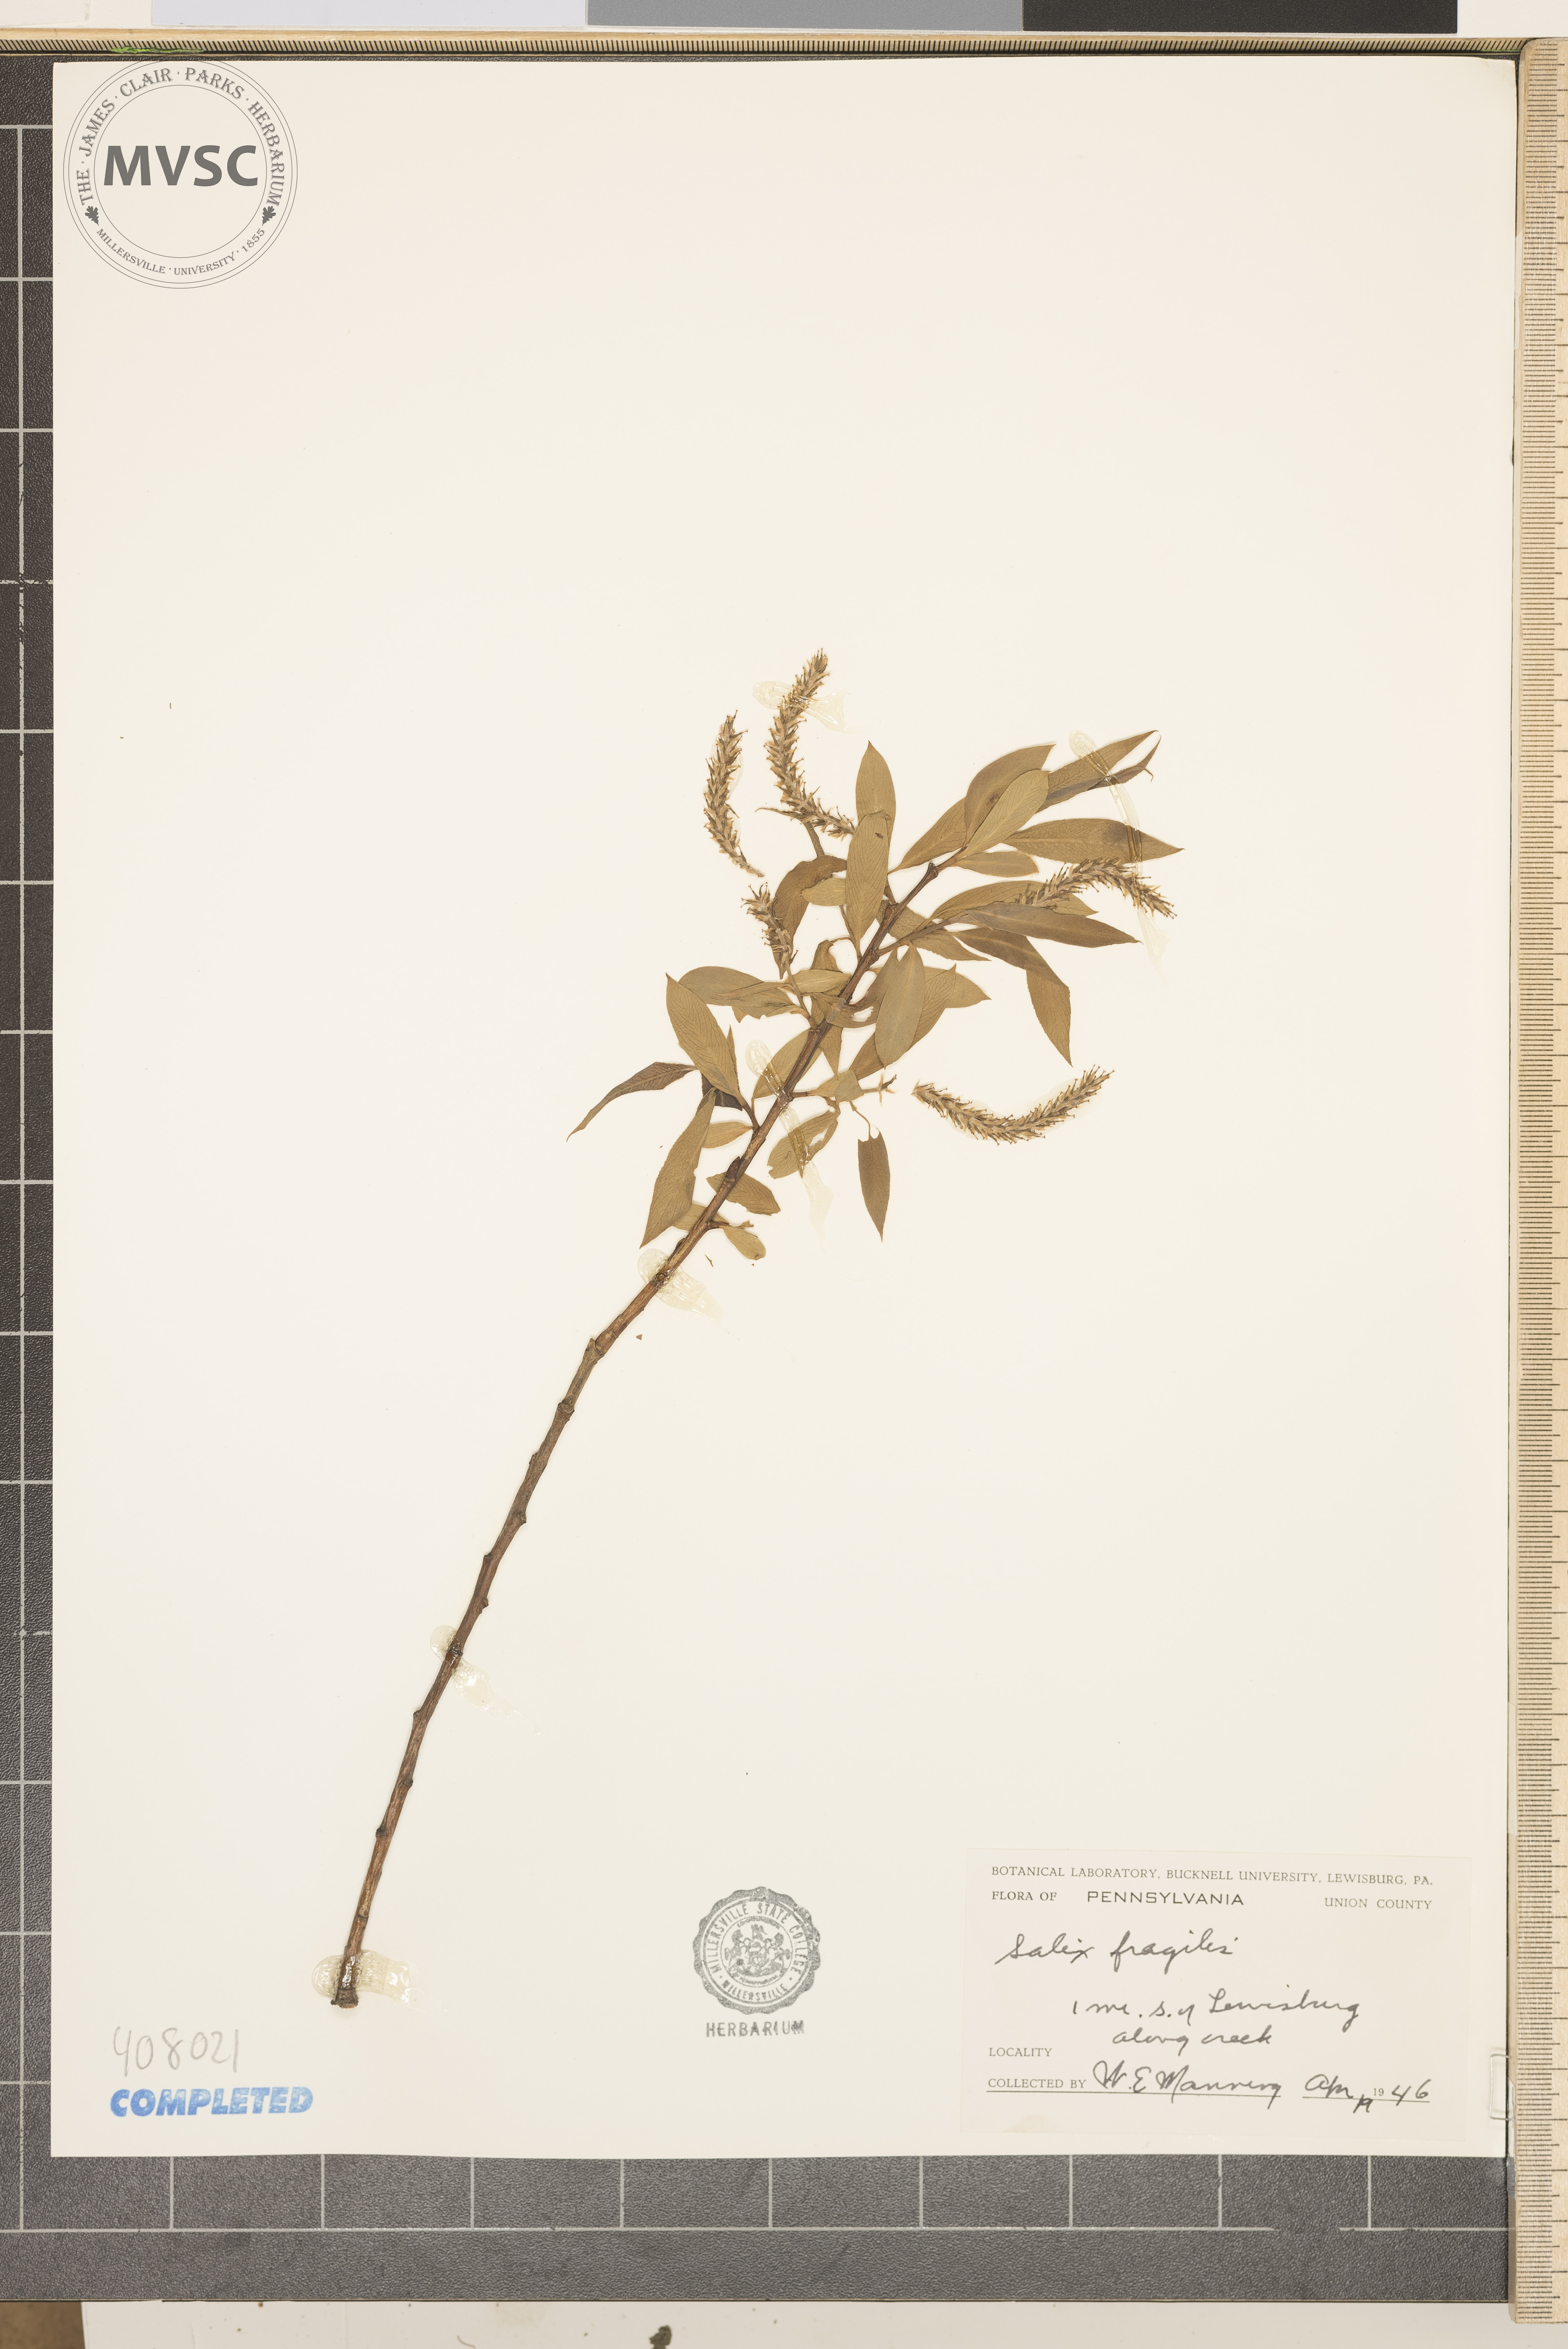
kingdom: Plantae
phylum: Tracheophyta
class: Magnoliopsida
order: Malpighiales
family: Salicaceae
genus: Salix
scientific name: Salix fragilis
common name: Crack willow
